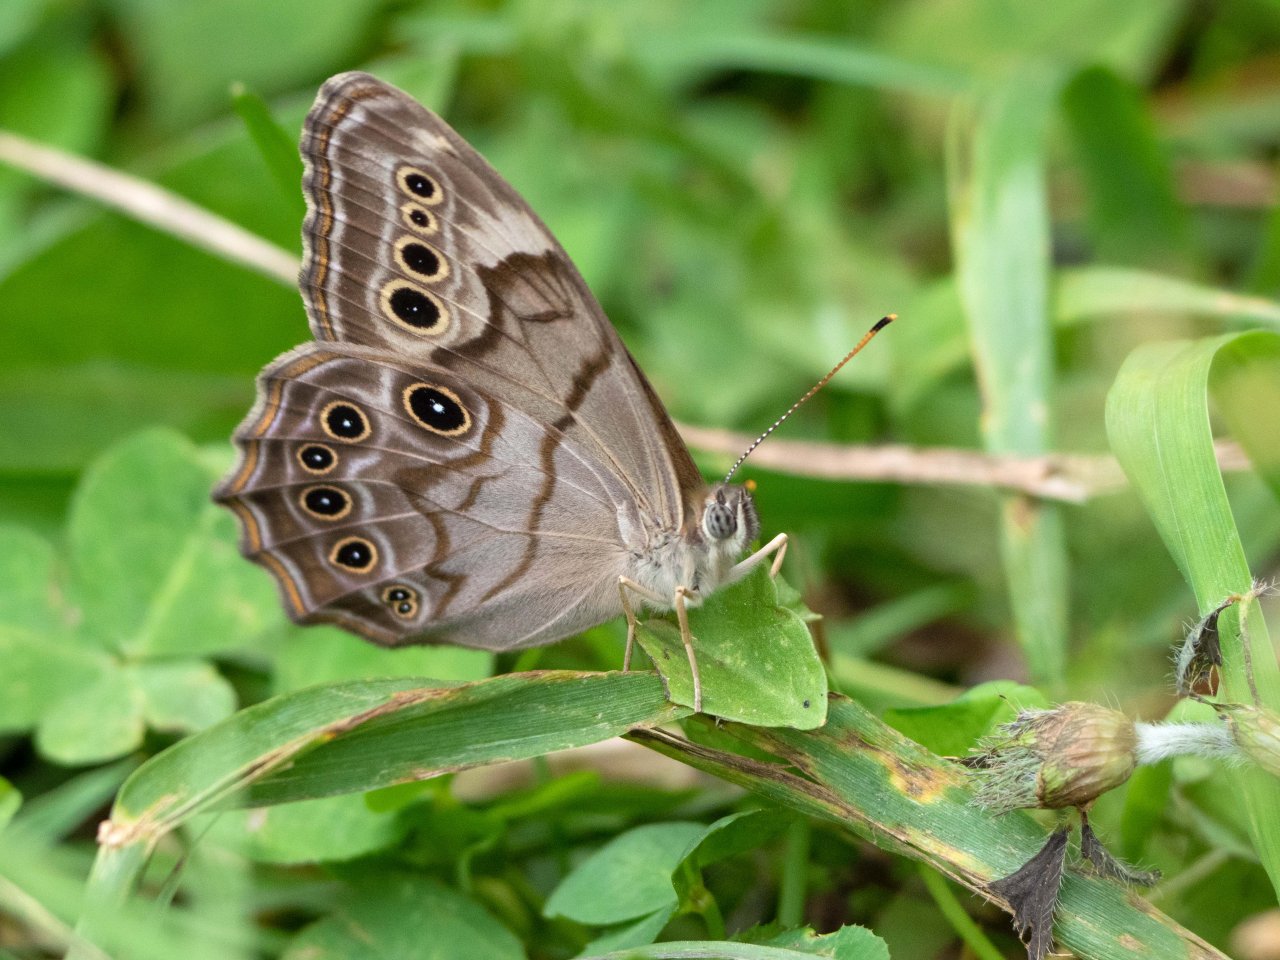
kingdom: Animalia
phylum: Arthropoda
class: Insecta
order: Lepidoptera
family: Nymphalidae
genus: Lethe
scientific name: Lethe anthedon
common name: Northern Pearly-Eye
